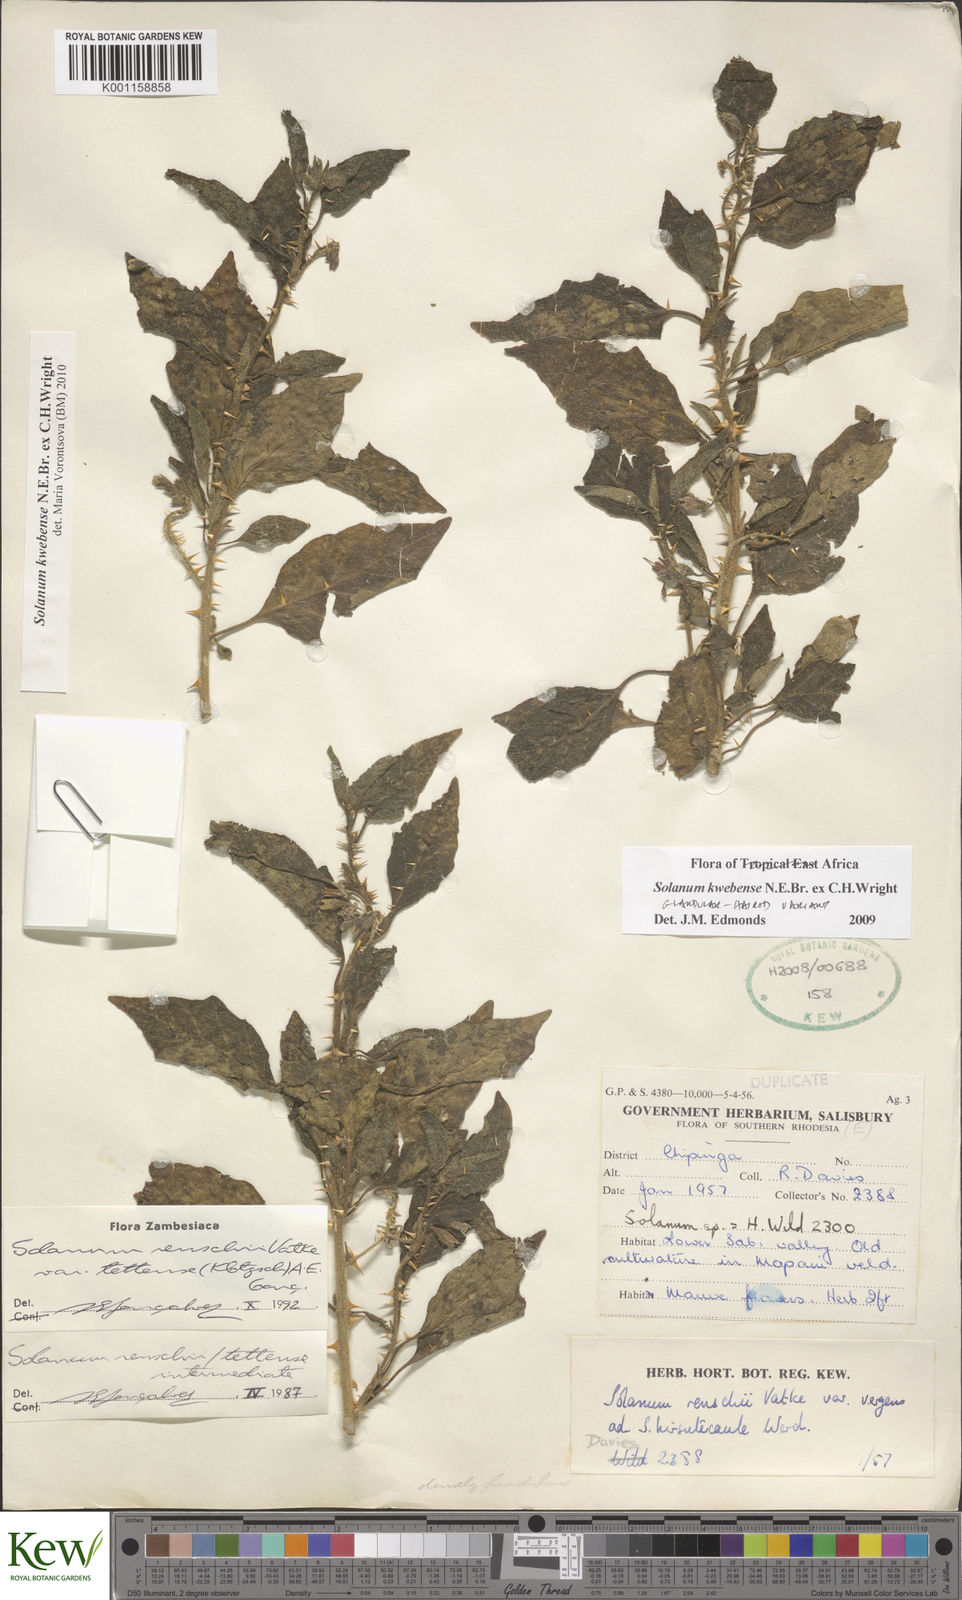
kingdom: Plantae
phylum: Tracheophyta
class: Magnoliopsida
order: Solanales
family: Solanaceae
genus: Solanum
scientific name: Solanum tettense
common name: Mozambique bitter apple
